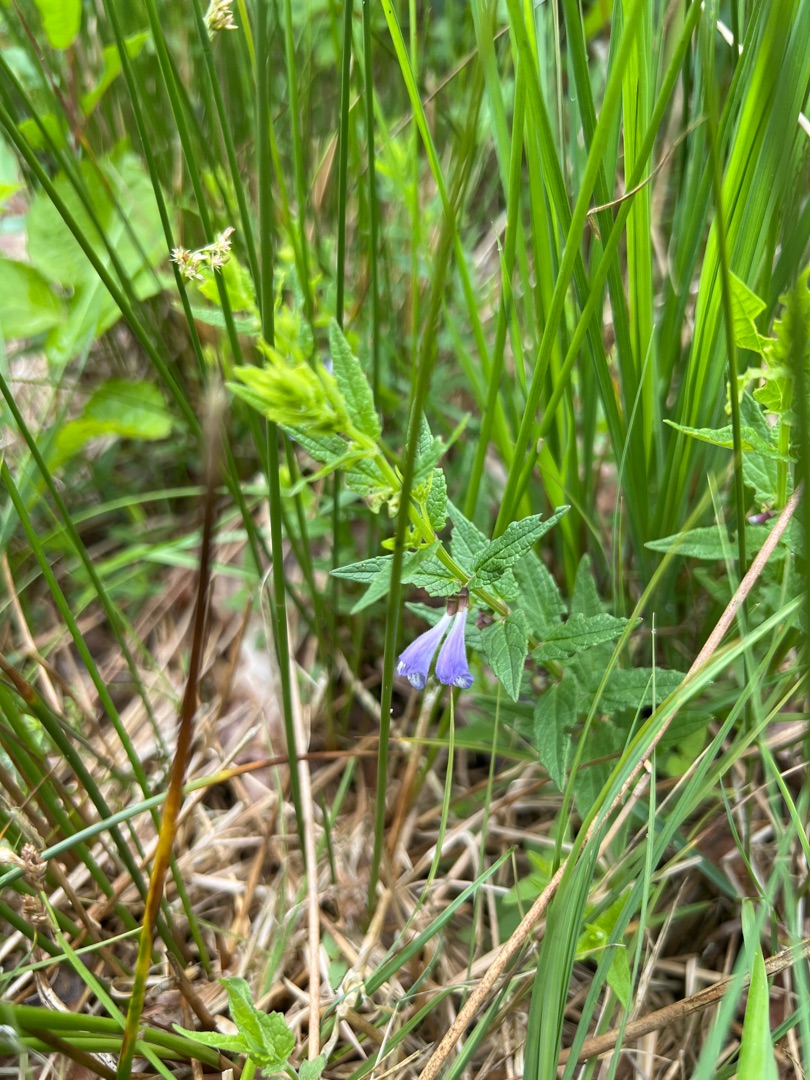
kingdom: Plantae
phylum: Tracheophyta
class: Magnoliopsida
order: Lamiales
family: Lamiaceae
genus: Scutellaria
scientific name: Scutellaria galericulata
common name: Almindelig skjolddrager
